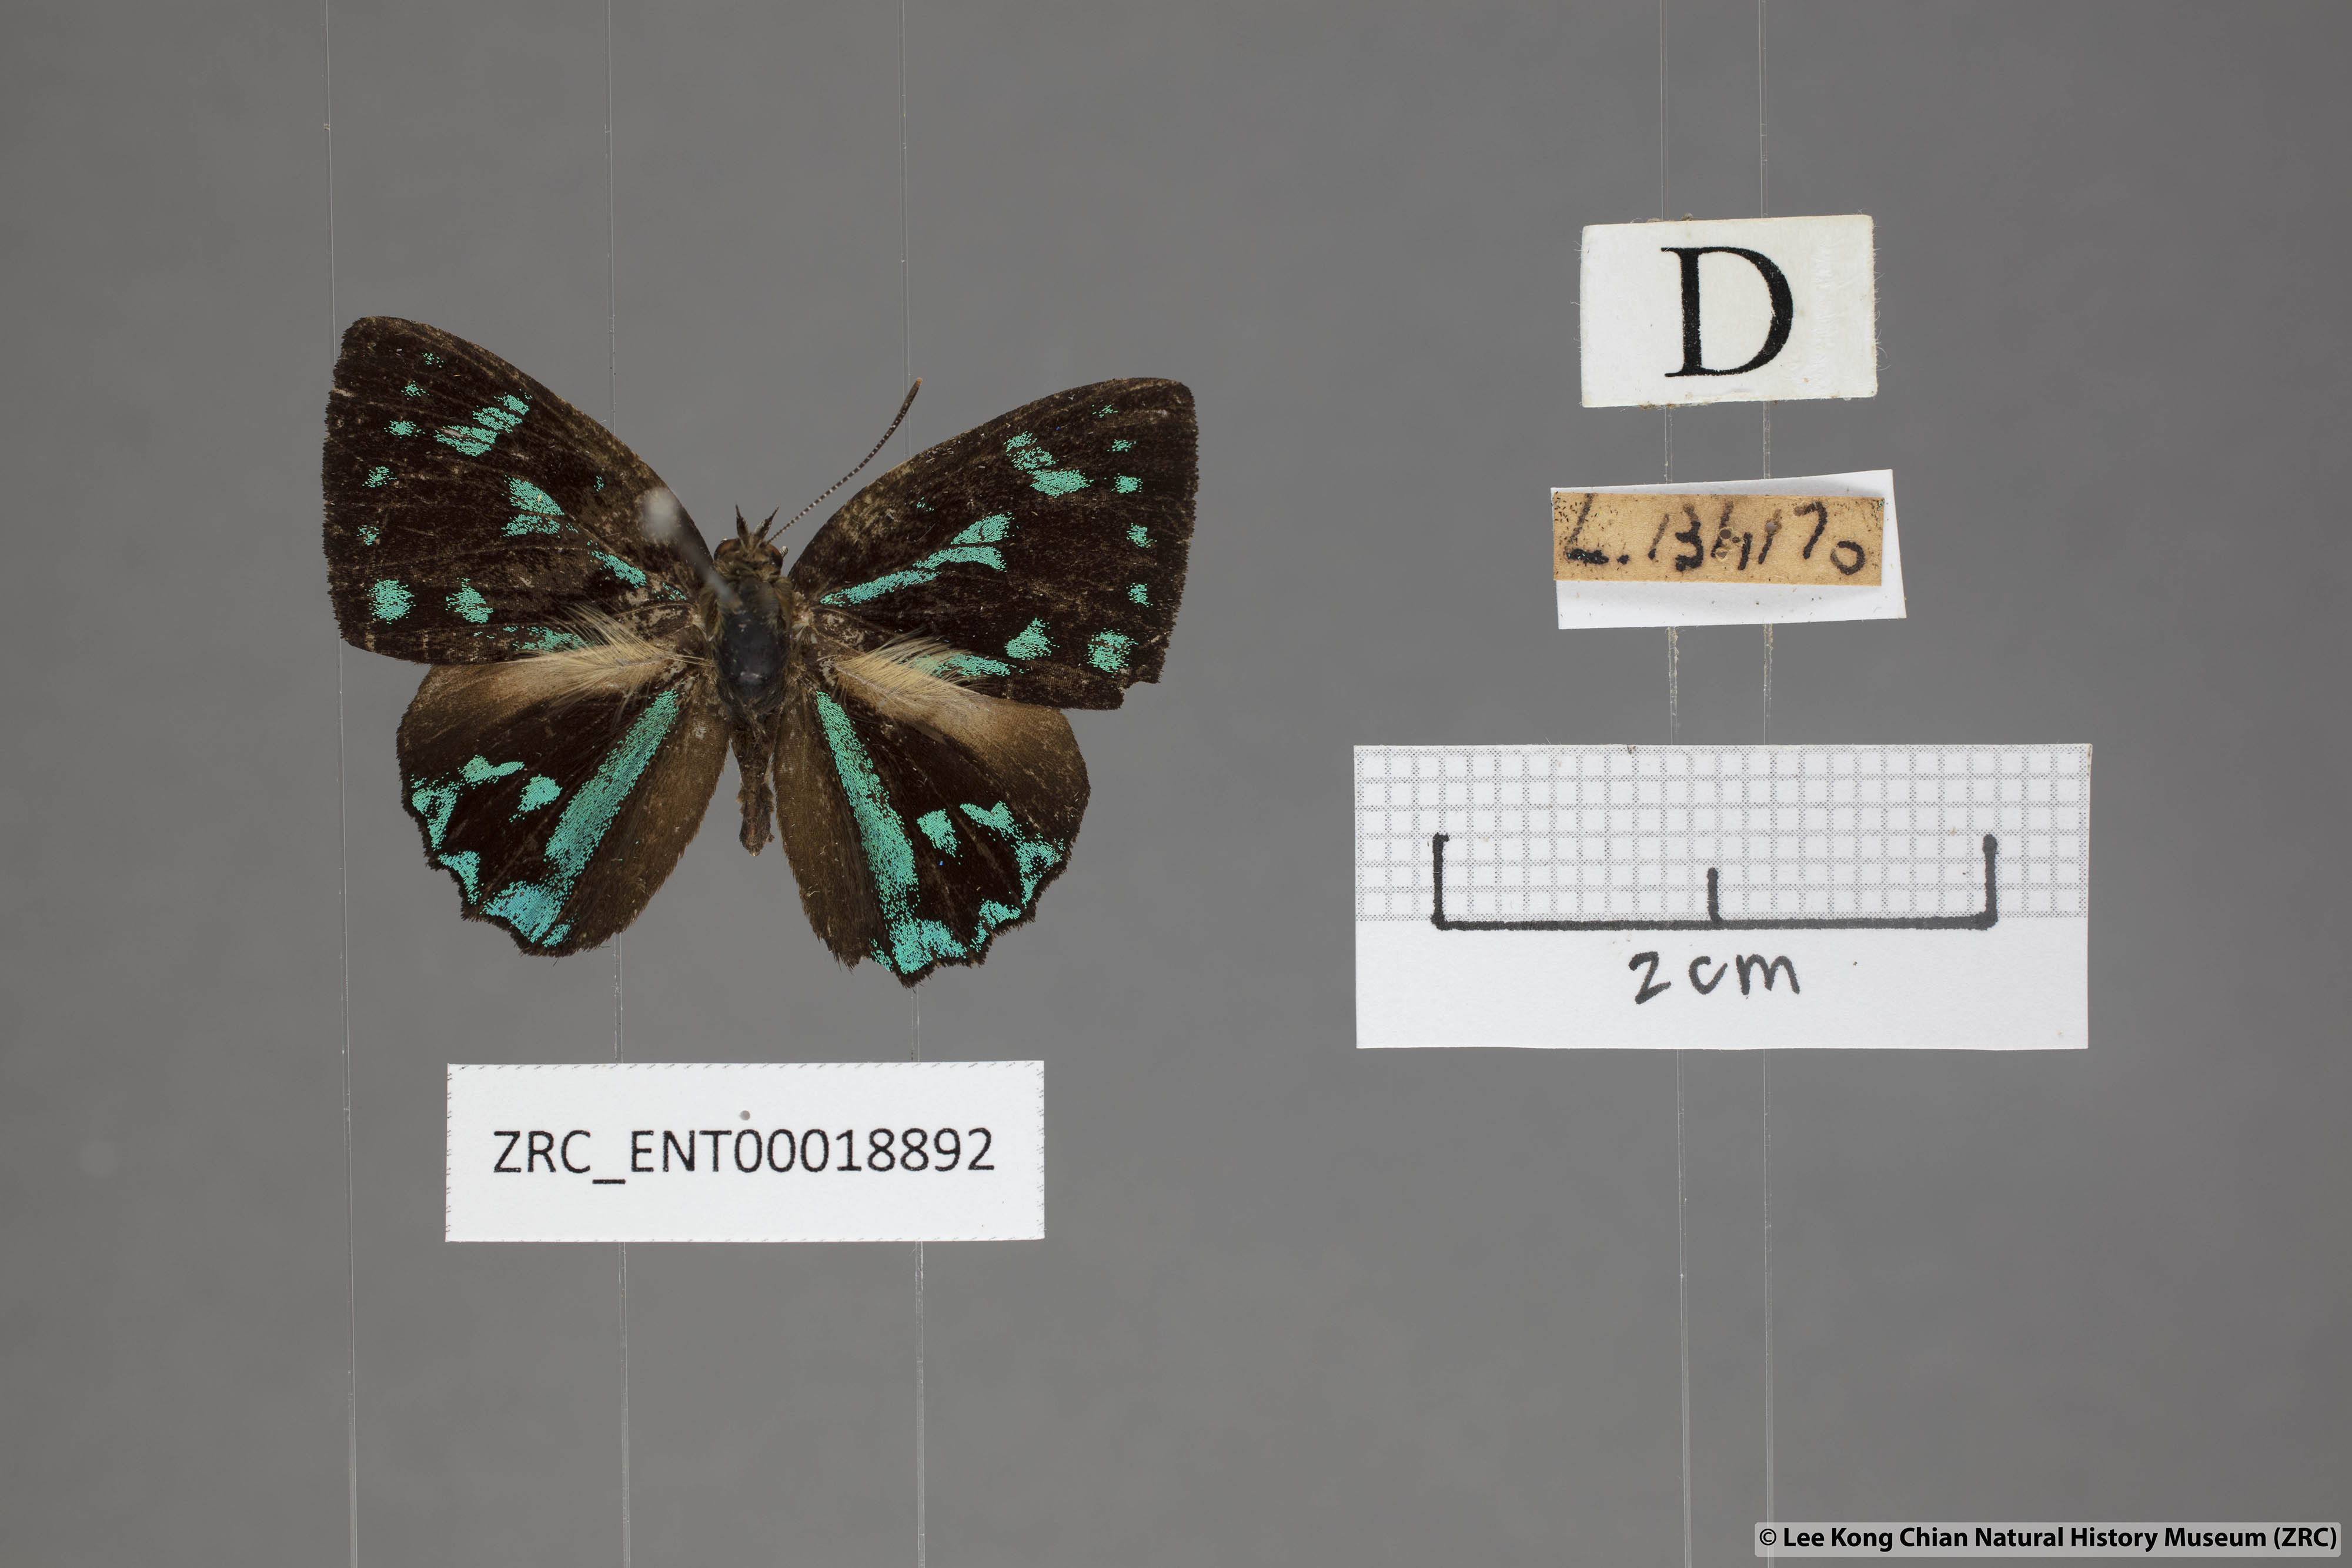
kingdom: Animalia
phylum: Arthropoda
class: Insecta
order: Lepidoptera
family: Lycaenidae
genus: Simiskina
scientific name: Simiskina
